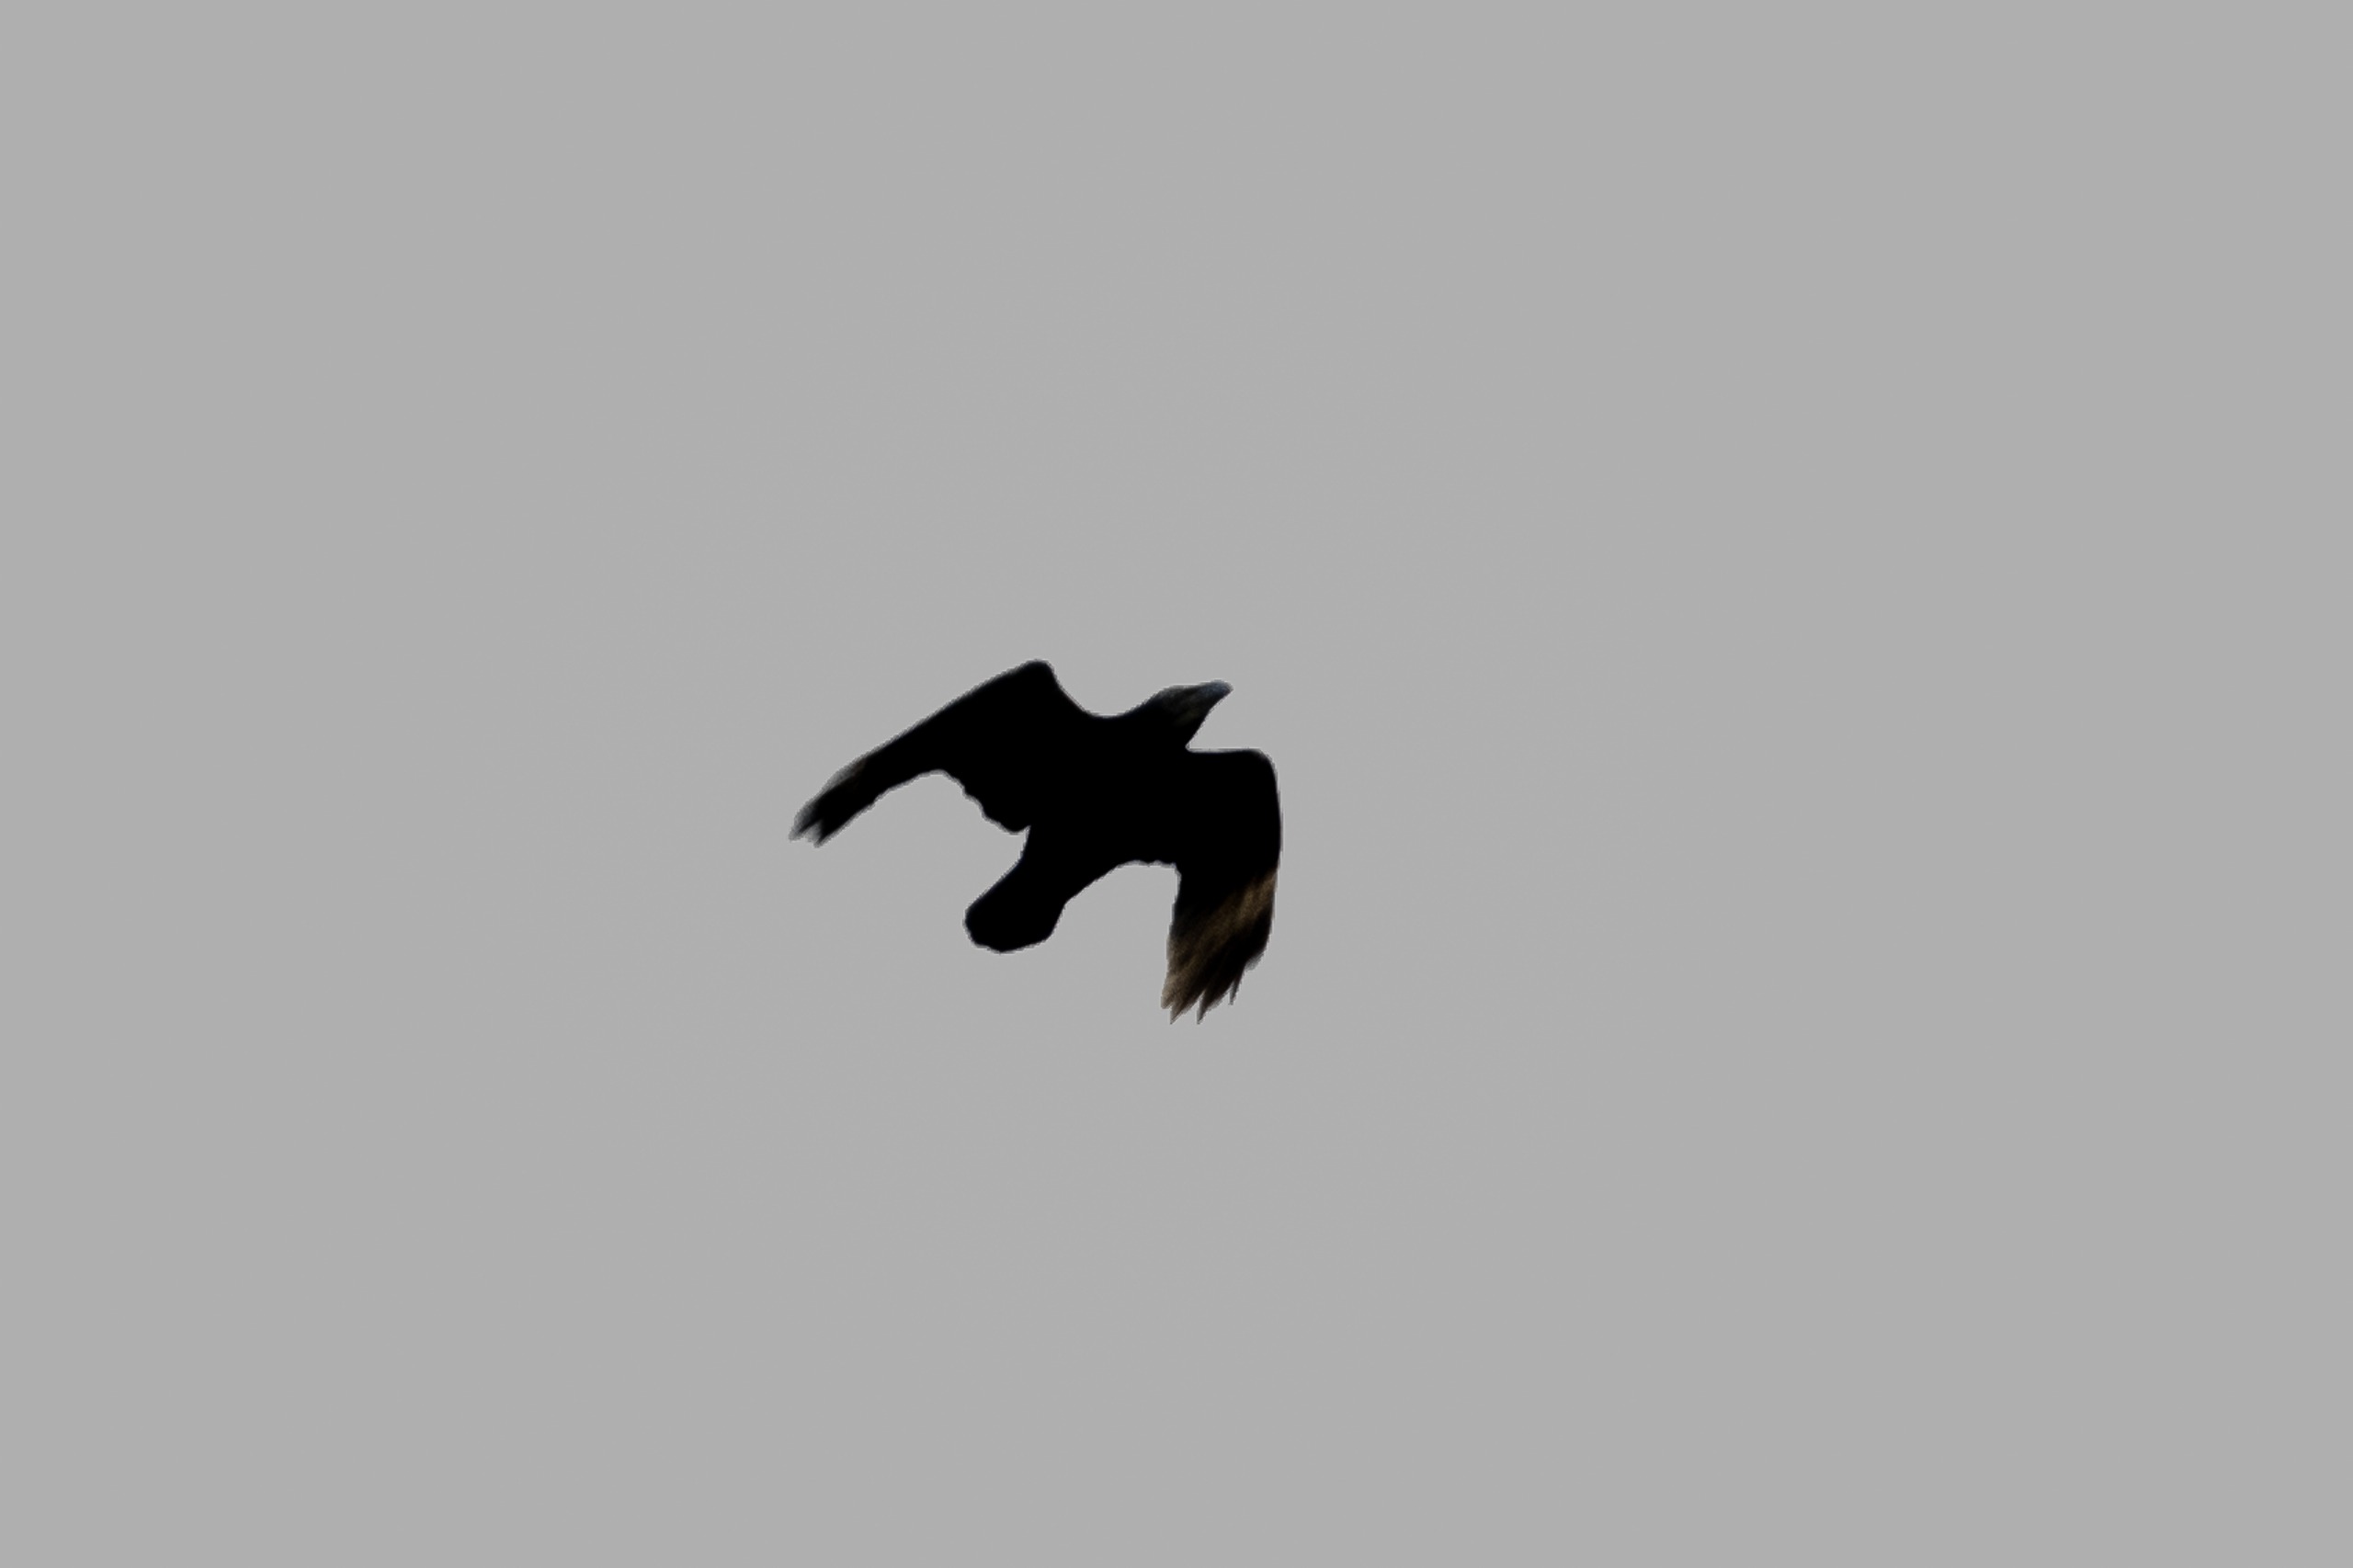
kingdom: Animalia
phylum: Chordata
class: Aves
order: Passeriformes
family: Corvidae
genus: Corvus
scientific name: Corvus corax
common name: Ravn
